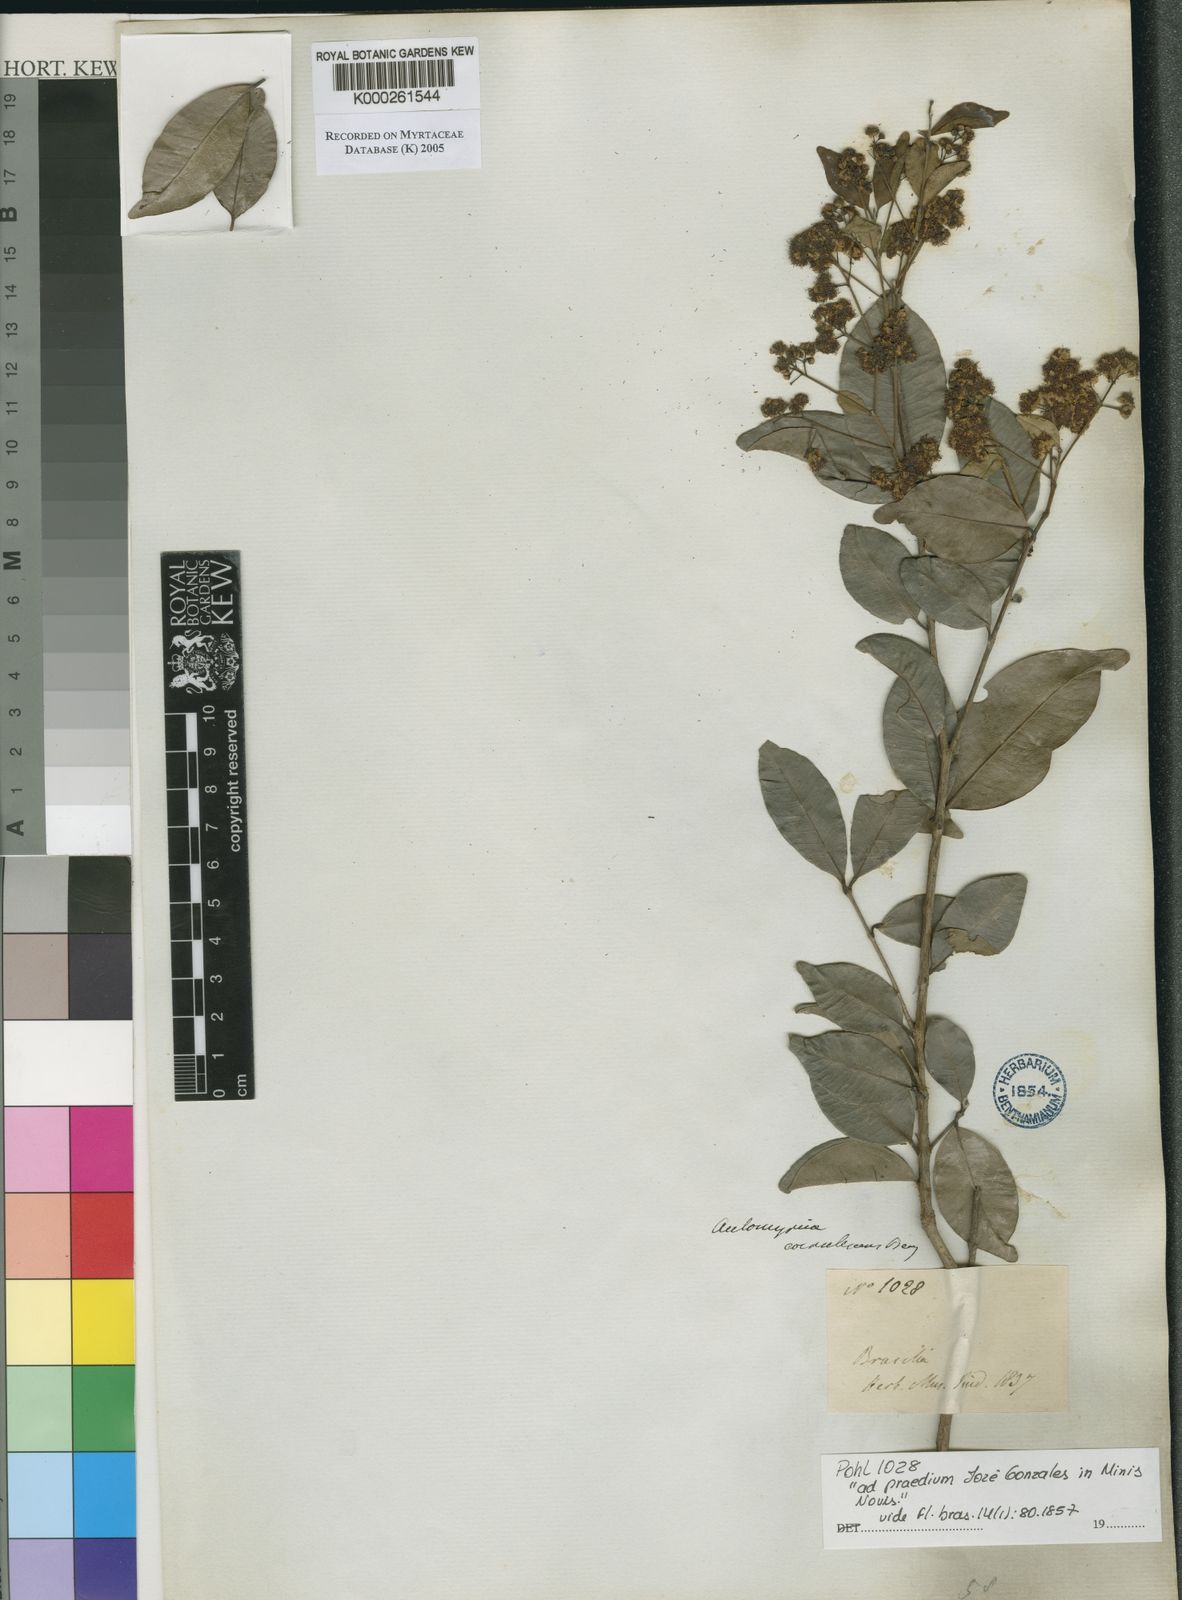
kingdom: Plantae
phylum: Tracheophyta
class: Magnoliopsida
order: Myrtales
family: Myrtaceae
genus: Myrcia
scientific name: Myrcia multiflora
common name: Pedra hume
